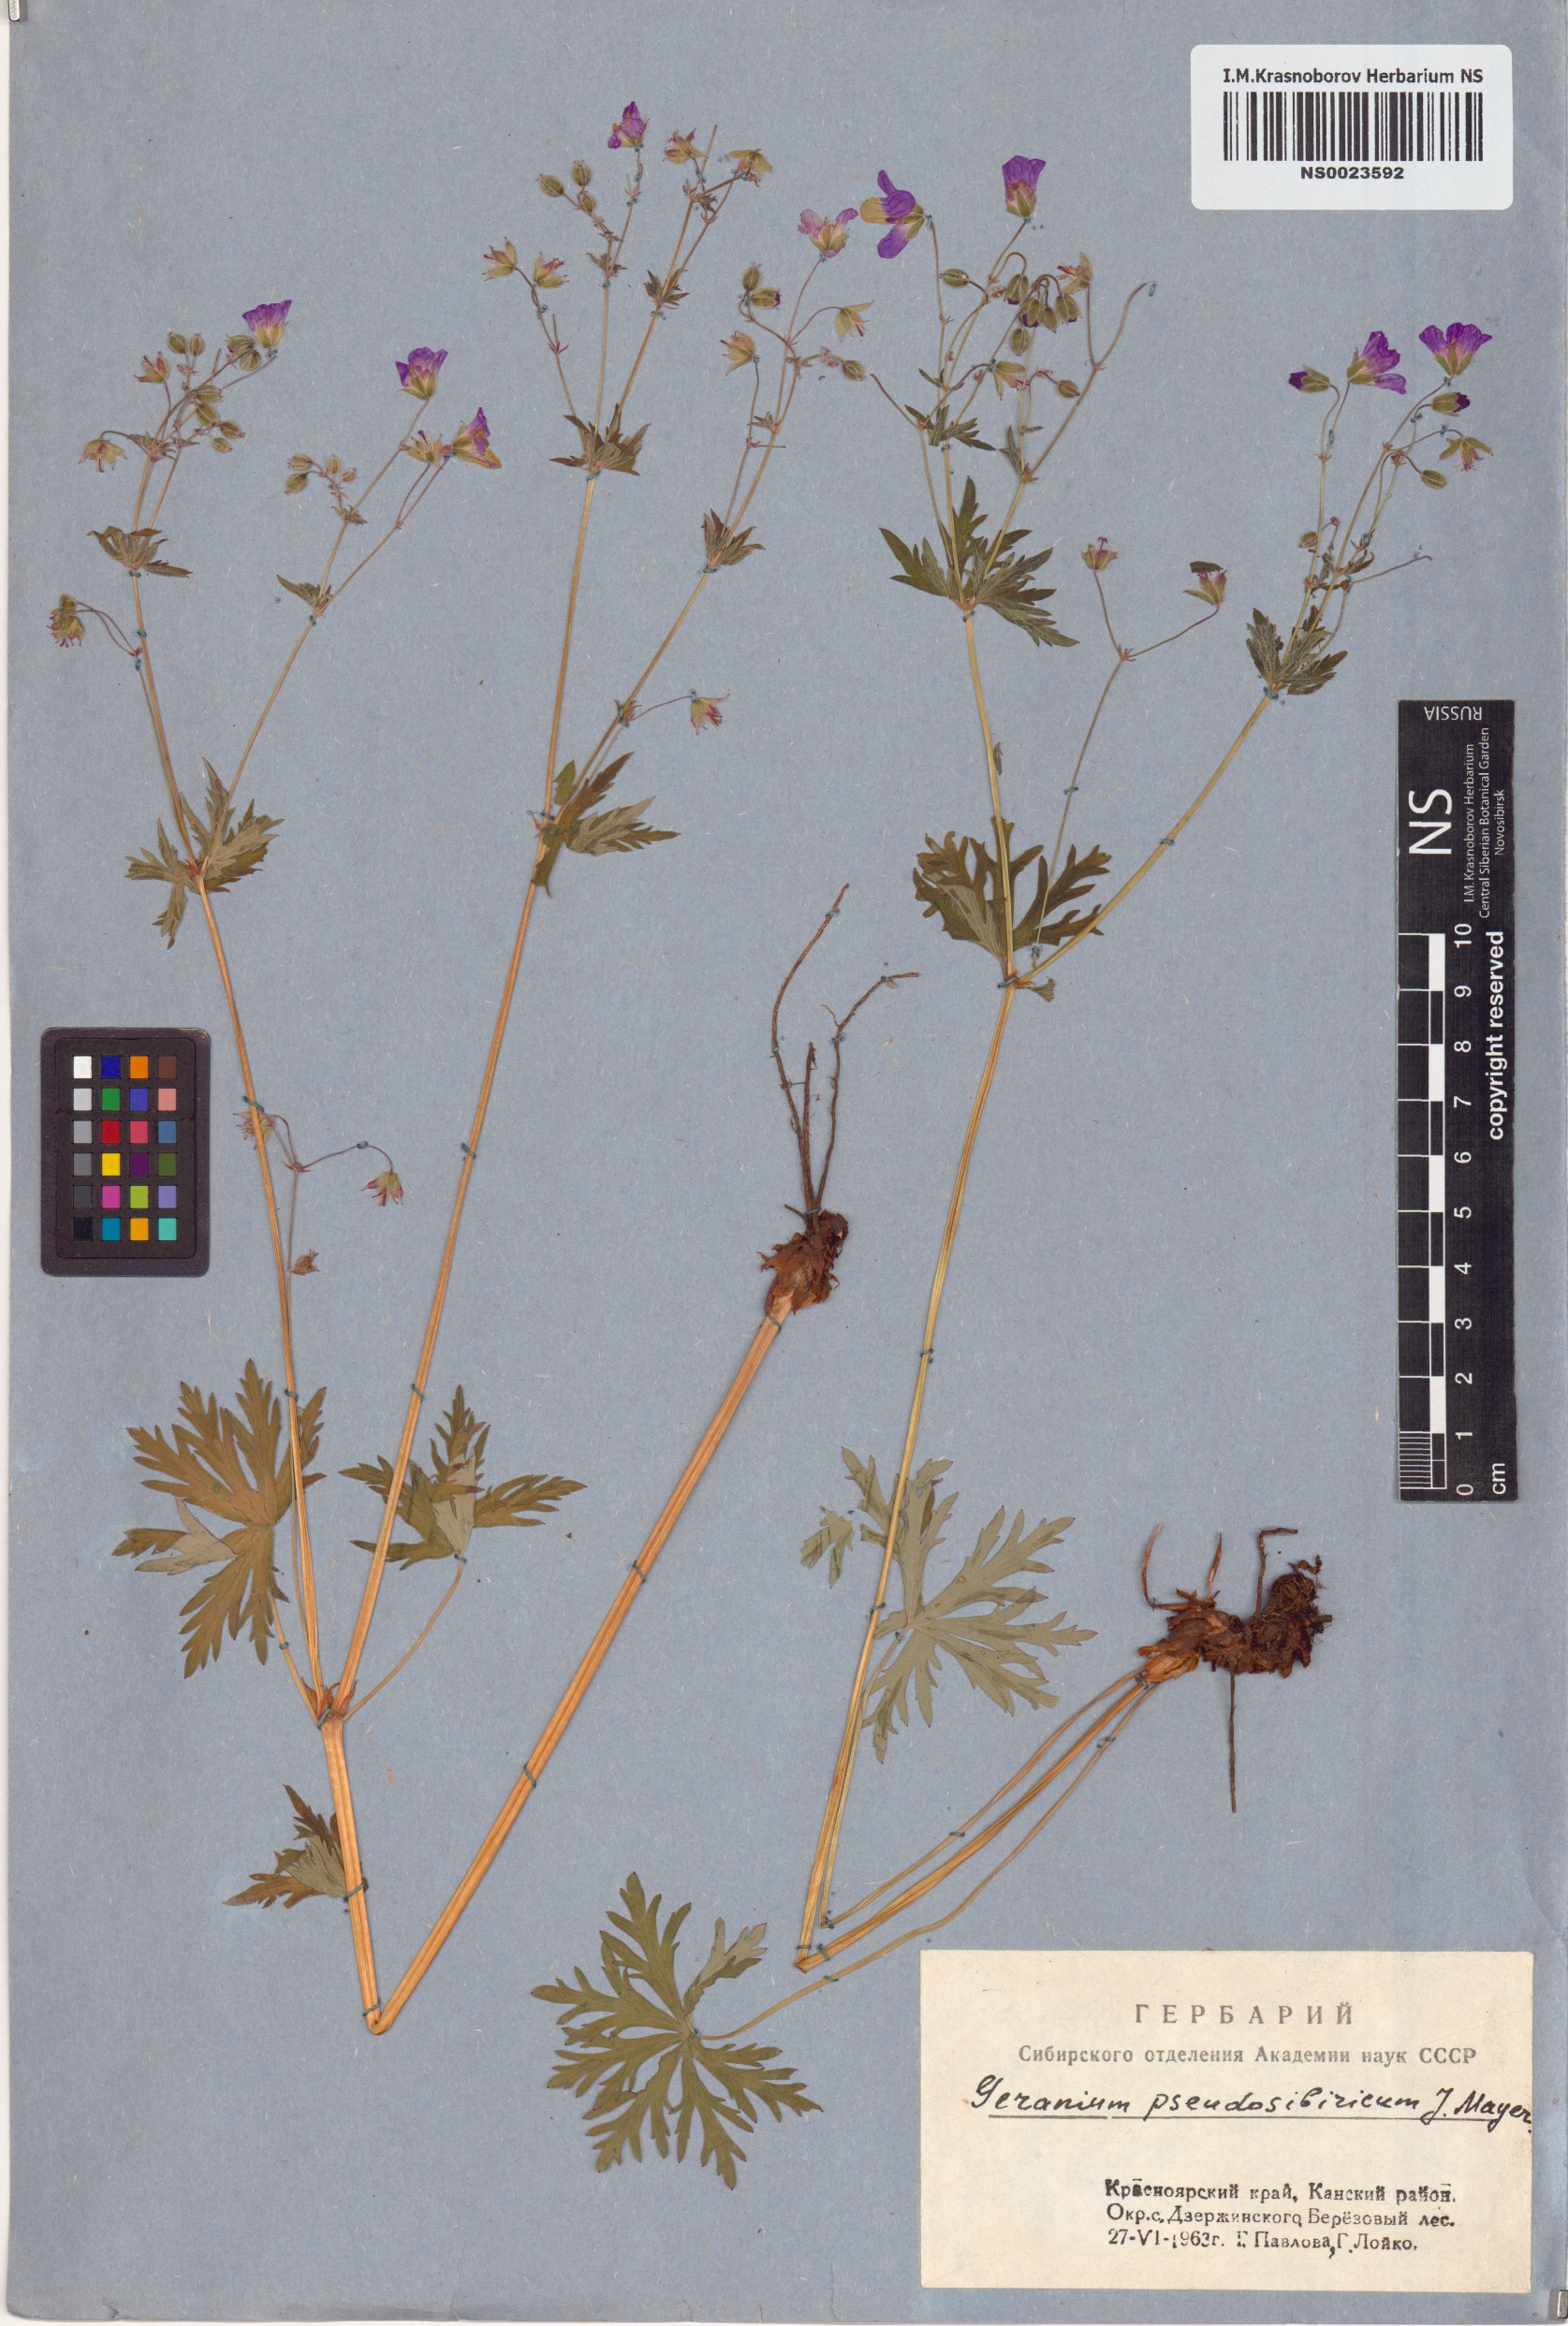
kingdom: Plantae
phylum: Tracheophyta
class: Magnoliopsida
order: Geraniales
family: Geraniaceae
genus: Geranium
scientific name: Geranium pseudosibiricum
